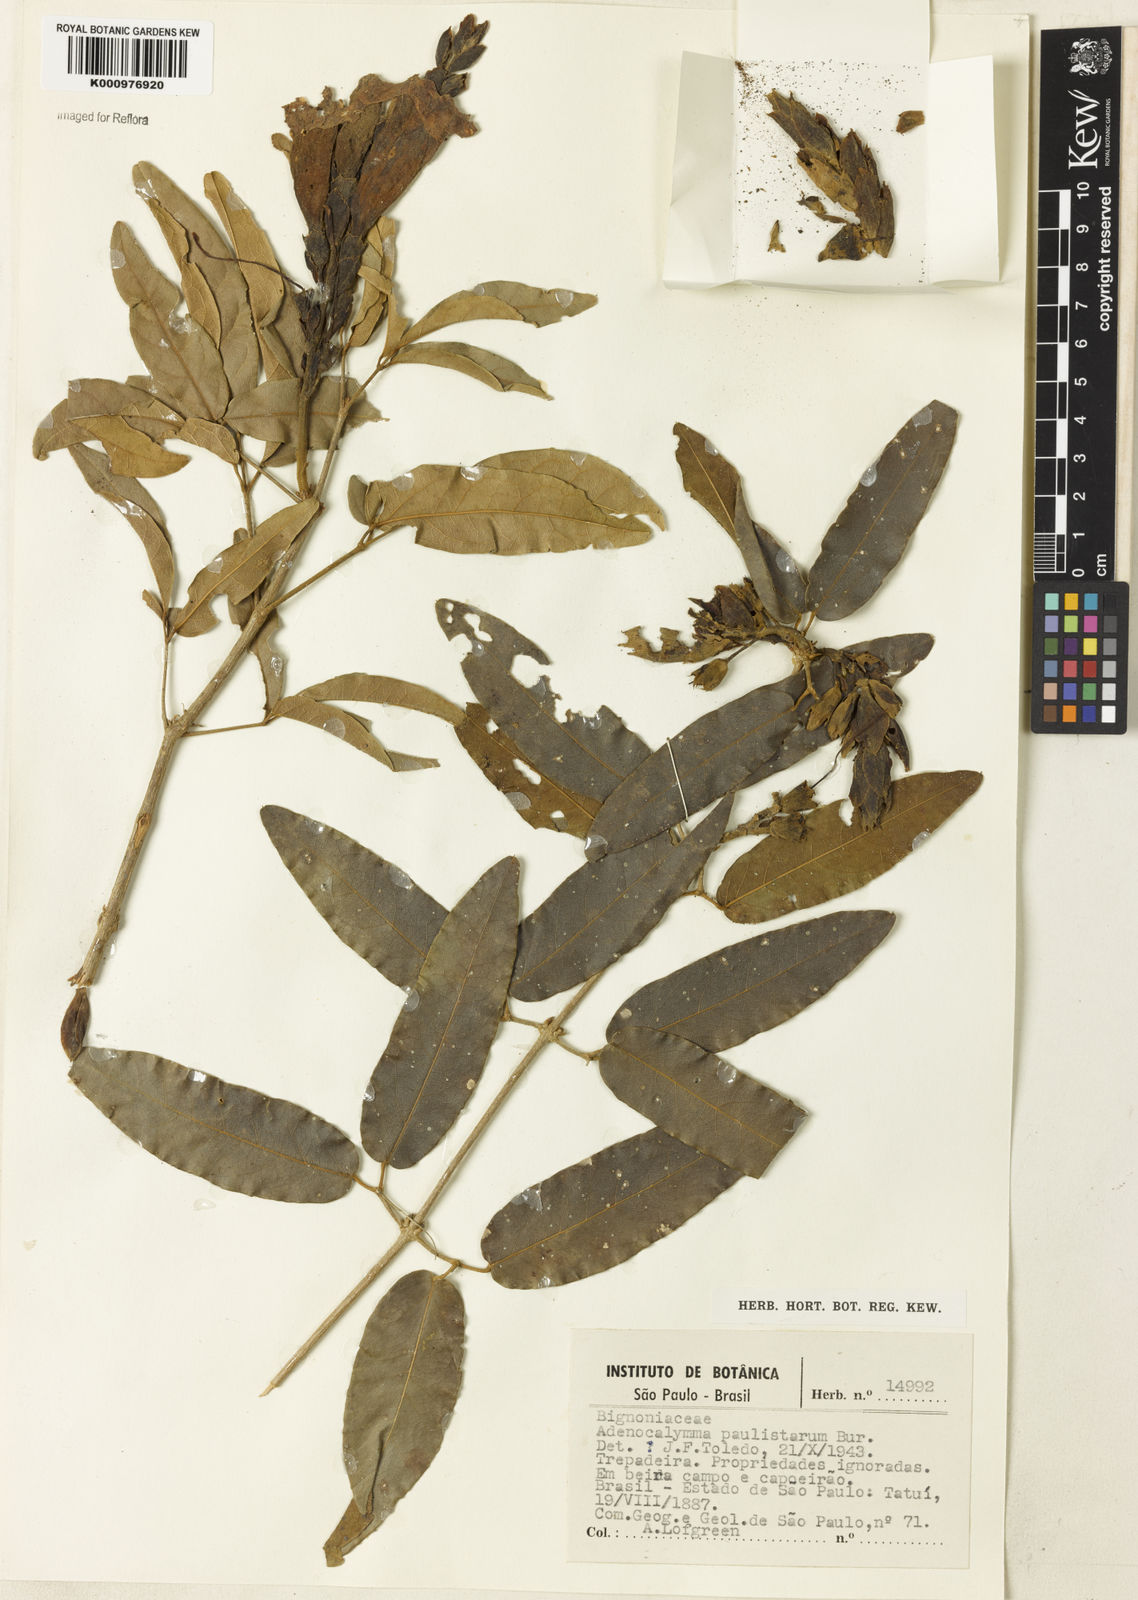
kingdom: Plantae
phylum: Tracheophyta
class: Magnoliopsida
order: Lamiales
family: Bignoniaceae
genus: Adenocalymma
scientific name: Adenocalymma paulistarum
